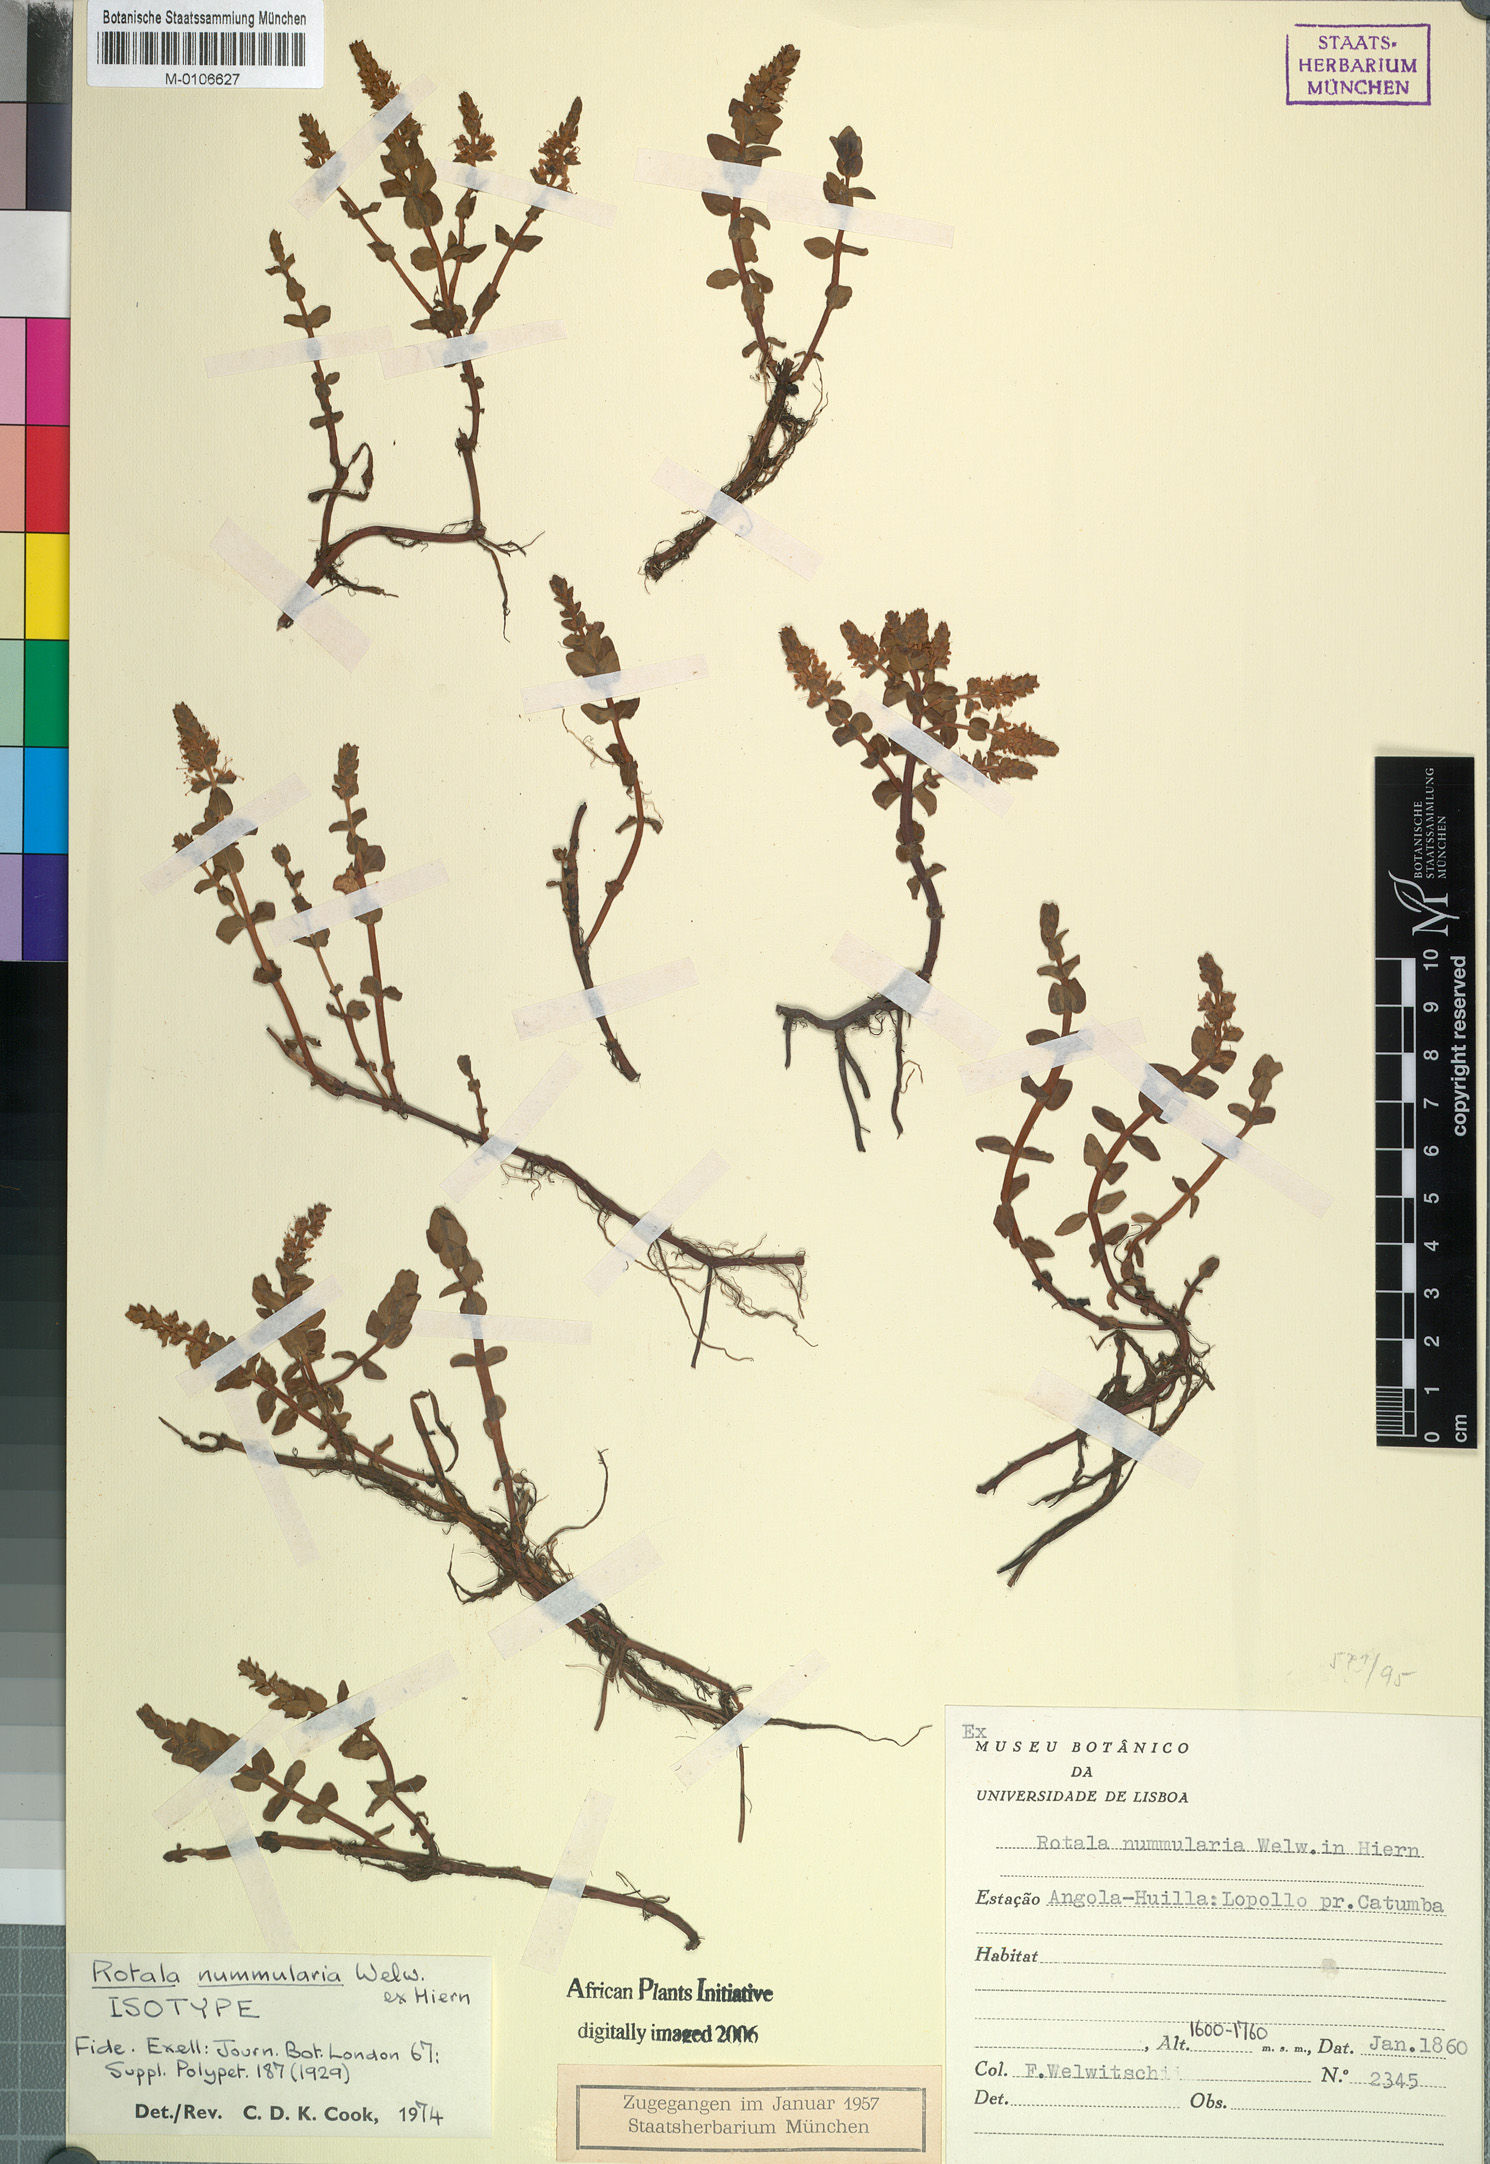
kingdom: Plantae
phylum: Tracheophyta
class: Magnoliopsida
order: Myrtales
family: Lythraceae
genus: Rotala
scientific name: Rotala thymoides
